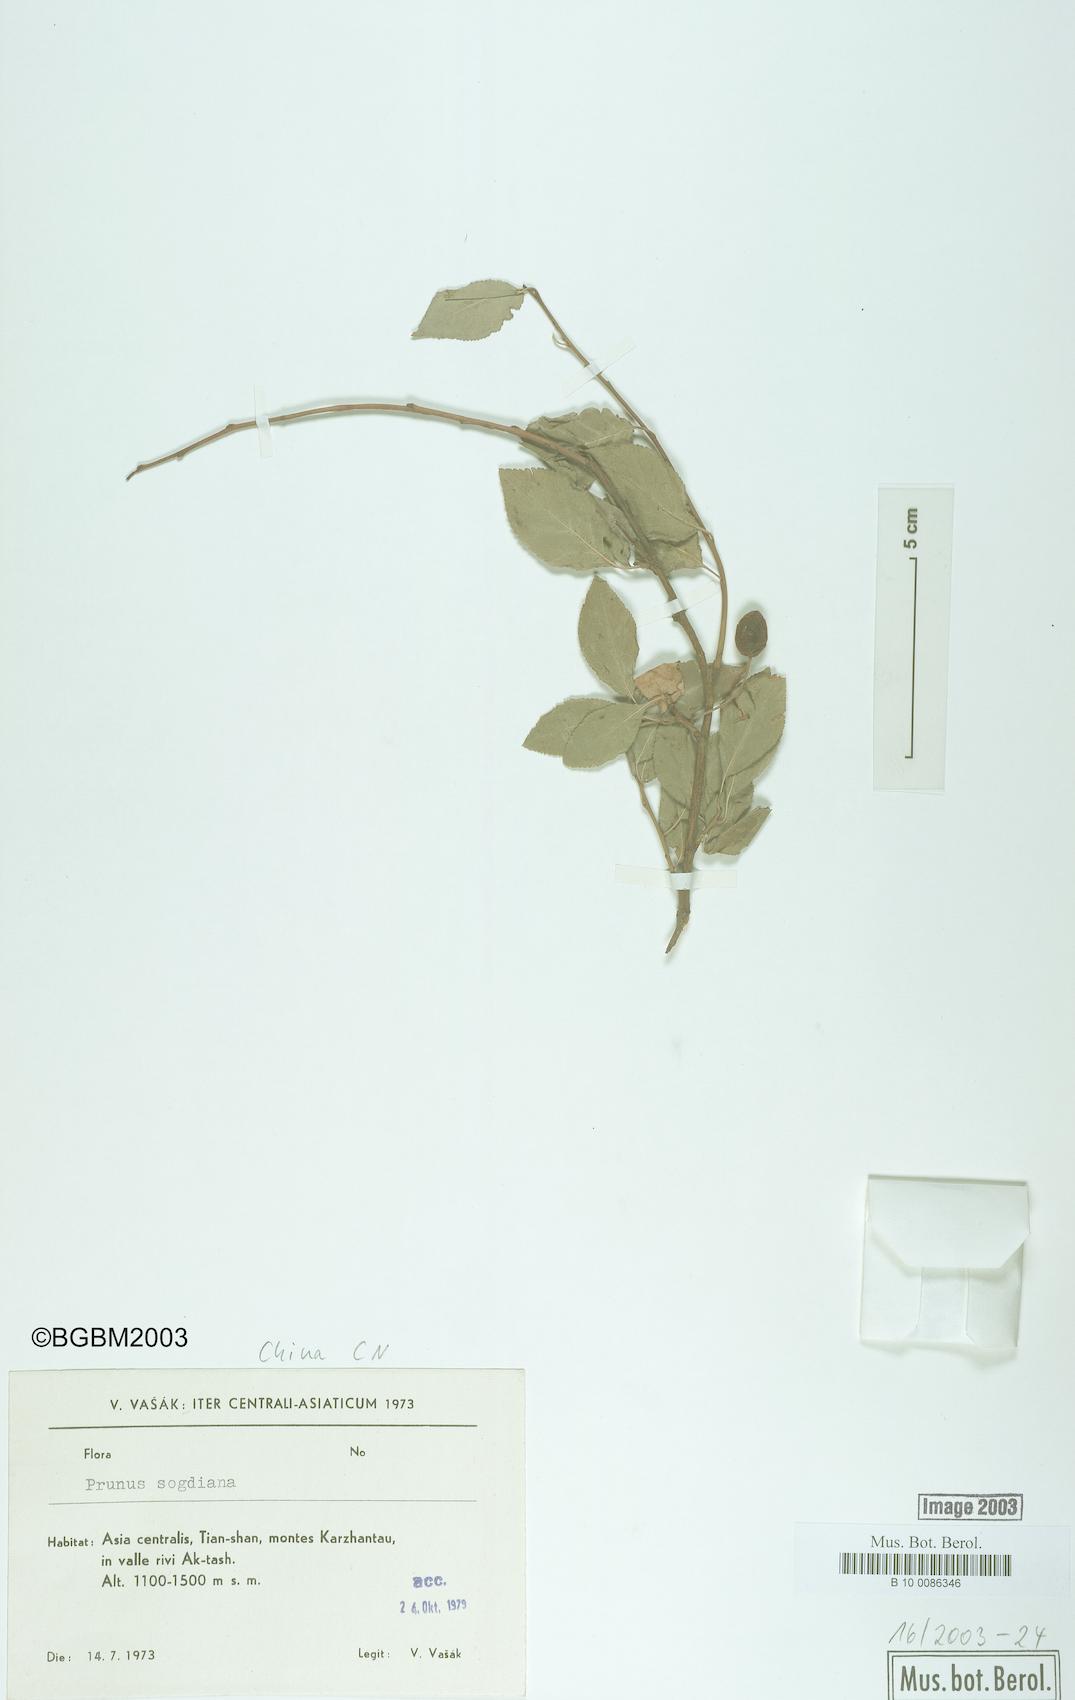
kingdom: Plantae
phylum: Tracheophyta
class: Magnoliopsida
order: Rosales
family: Rosaceae
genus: Prunus
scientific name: Prunus
